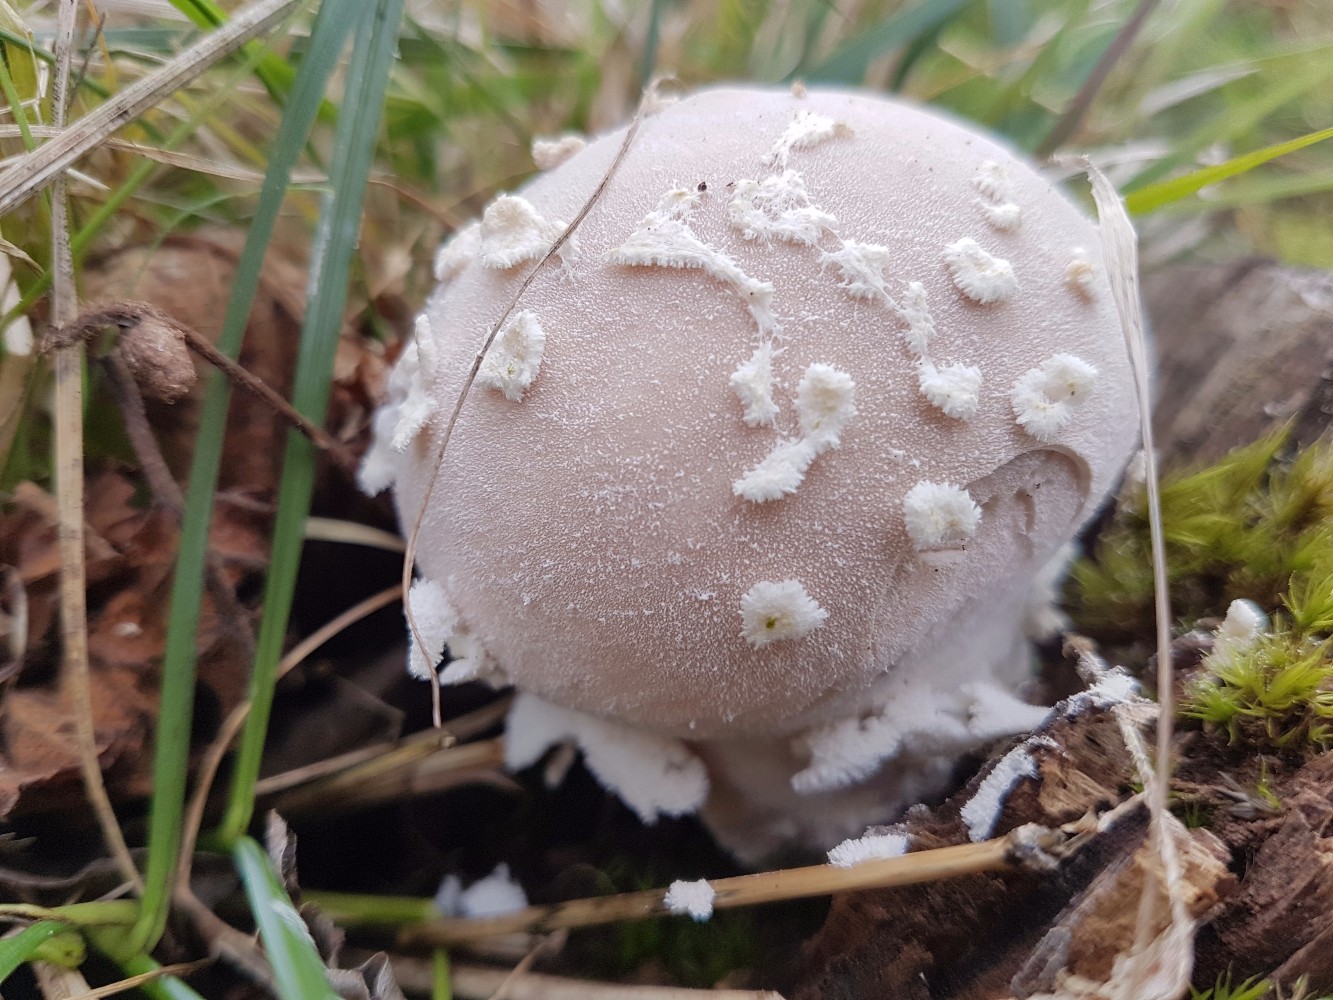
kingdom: Fungi
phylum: Basidiomycota
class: Agaricomycetes
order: Agaricales
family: Lycoperdaceae
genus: Lycoperdon
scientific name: Lycoperdon mammiforme
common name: rosa støvbold
